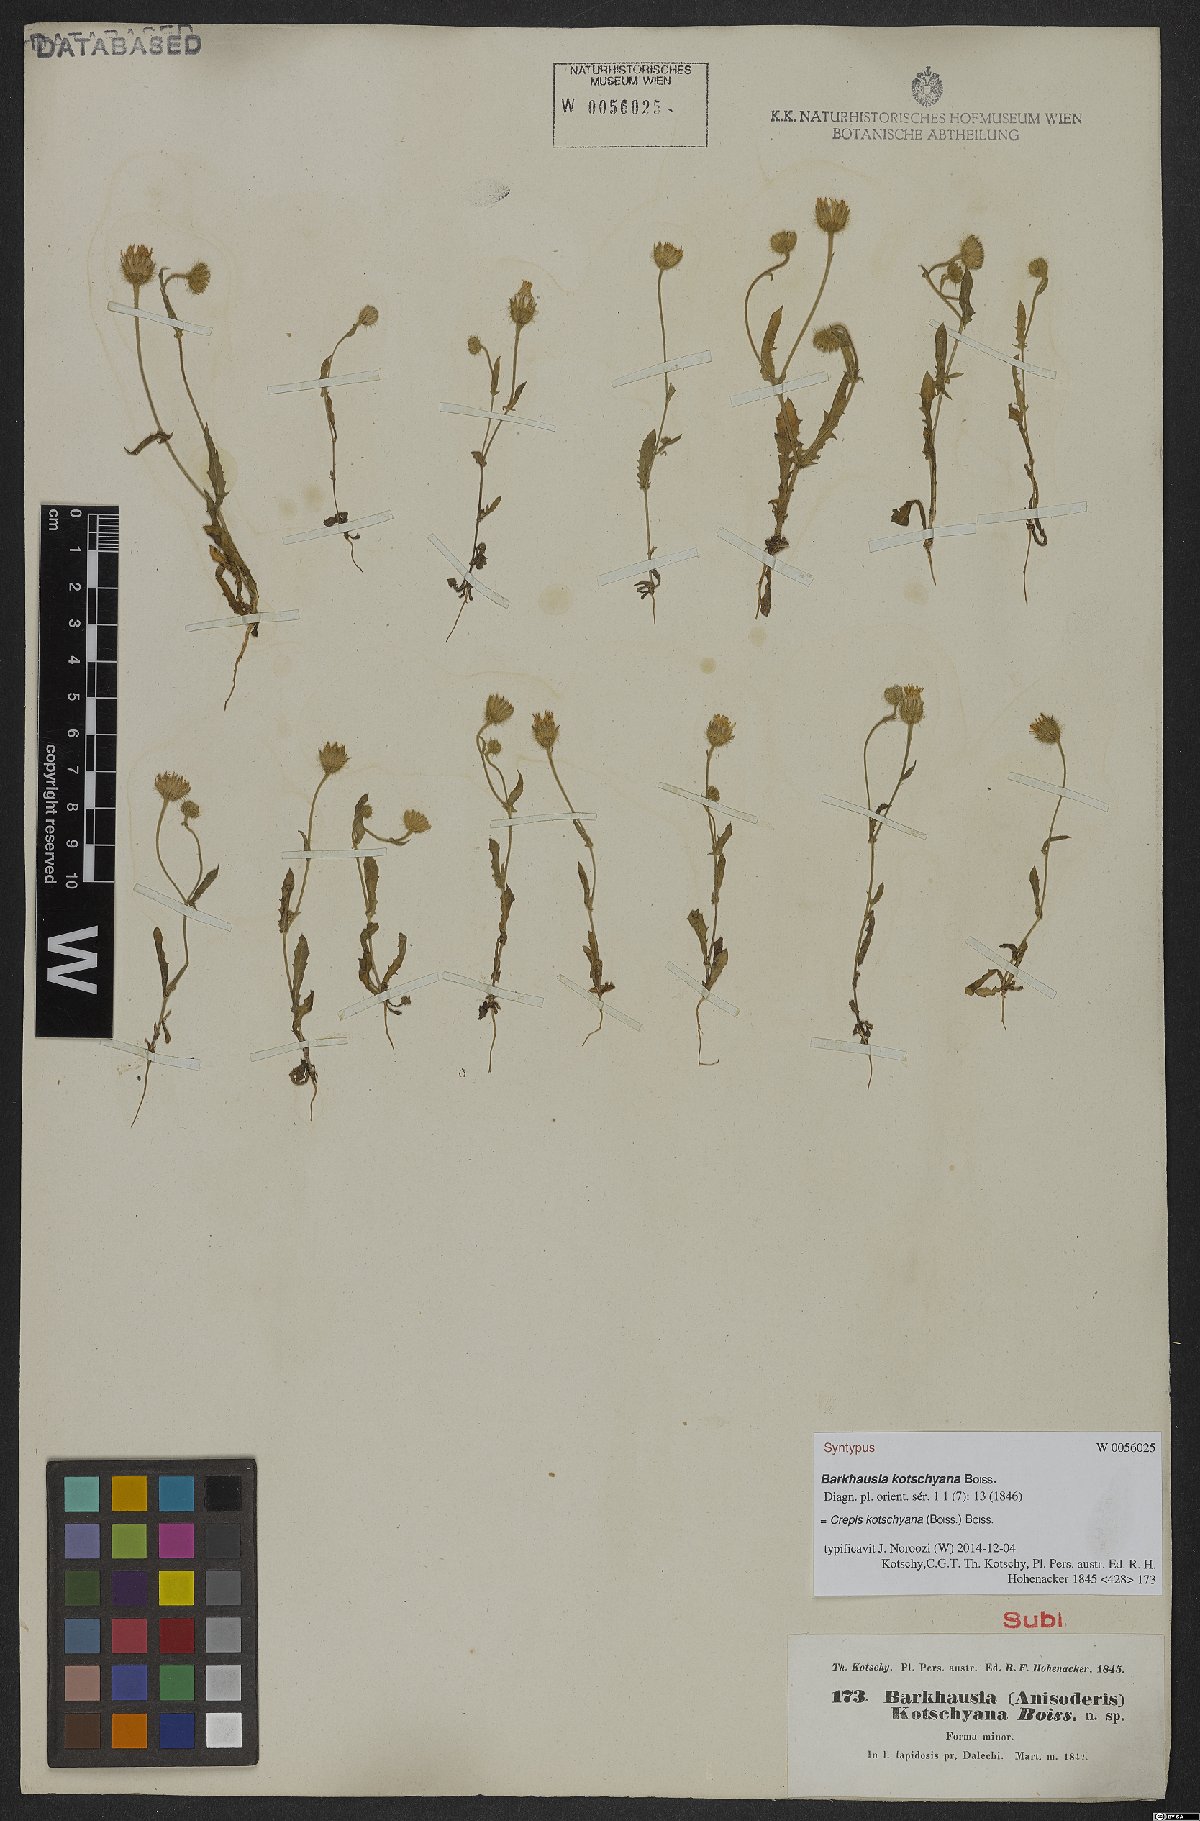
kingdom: Plantae
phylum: Tracheophyta
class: Magnoliopsida
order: Asterales
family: Asteraceae
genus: Crepis
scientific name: Crepis kotschyana
